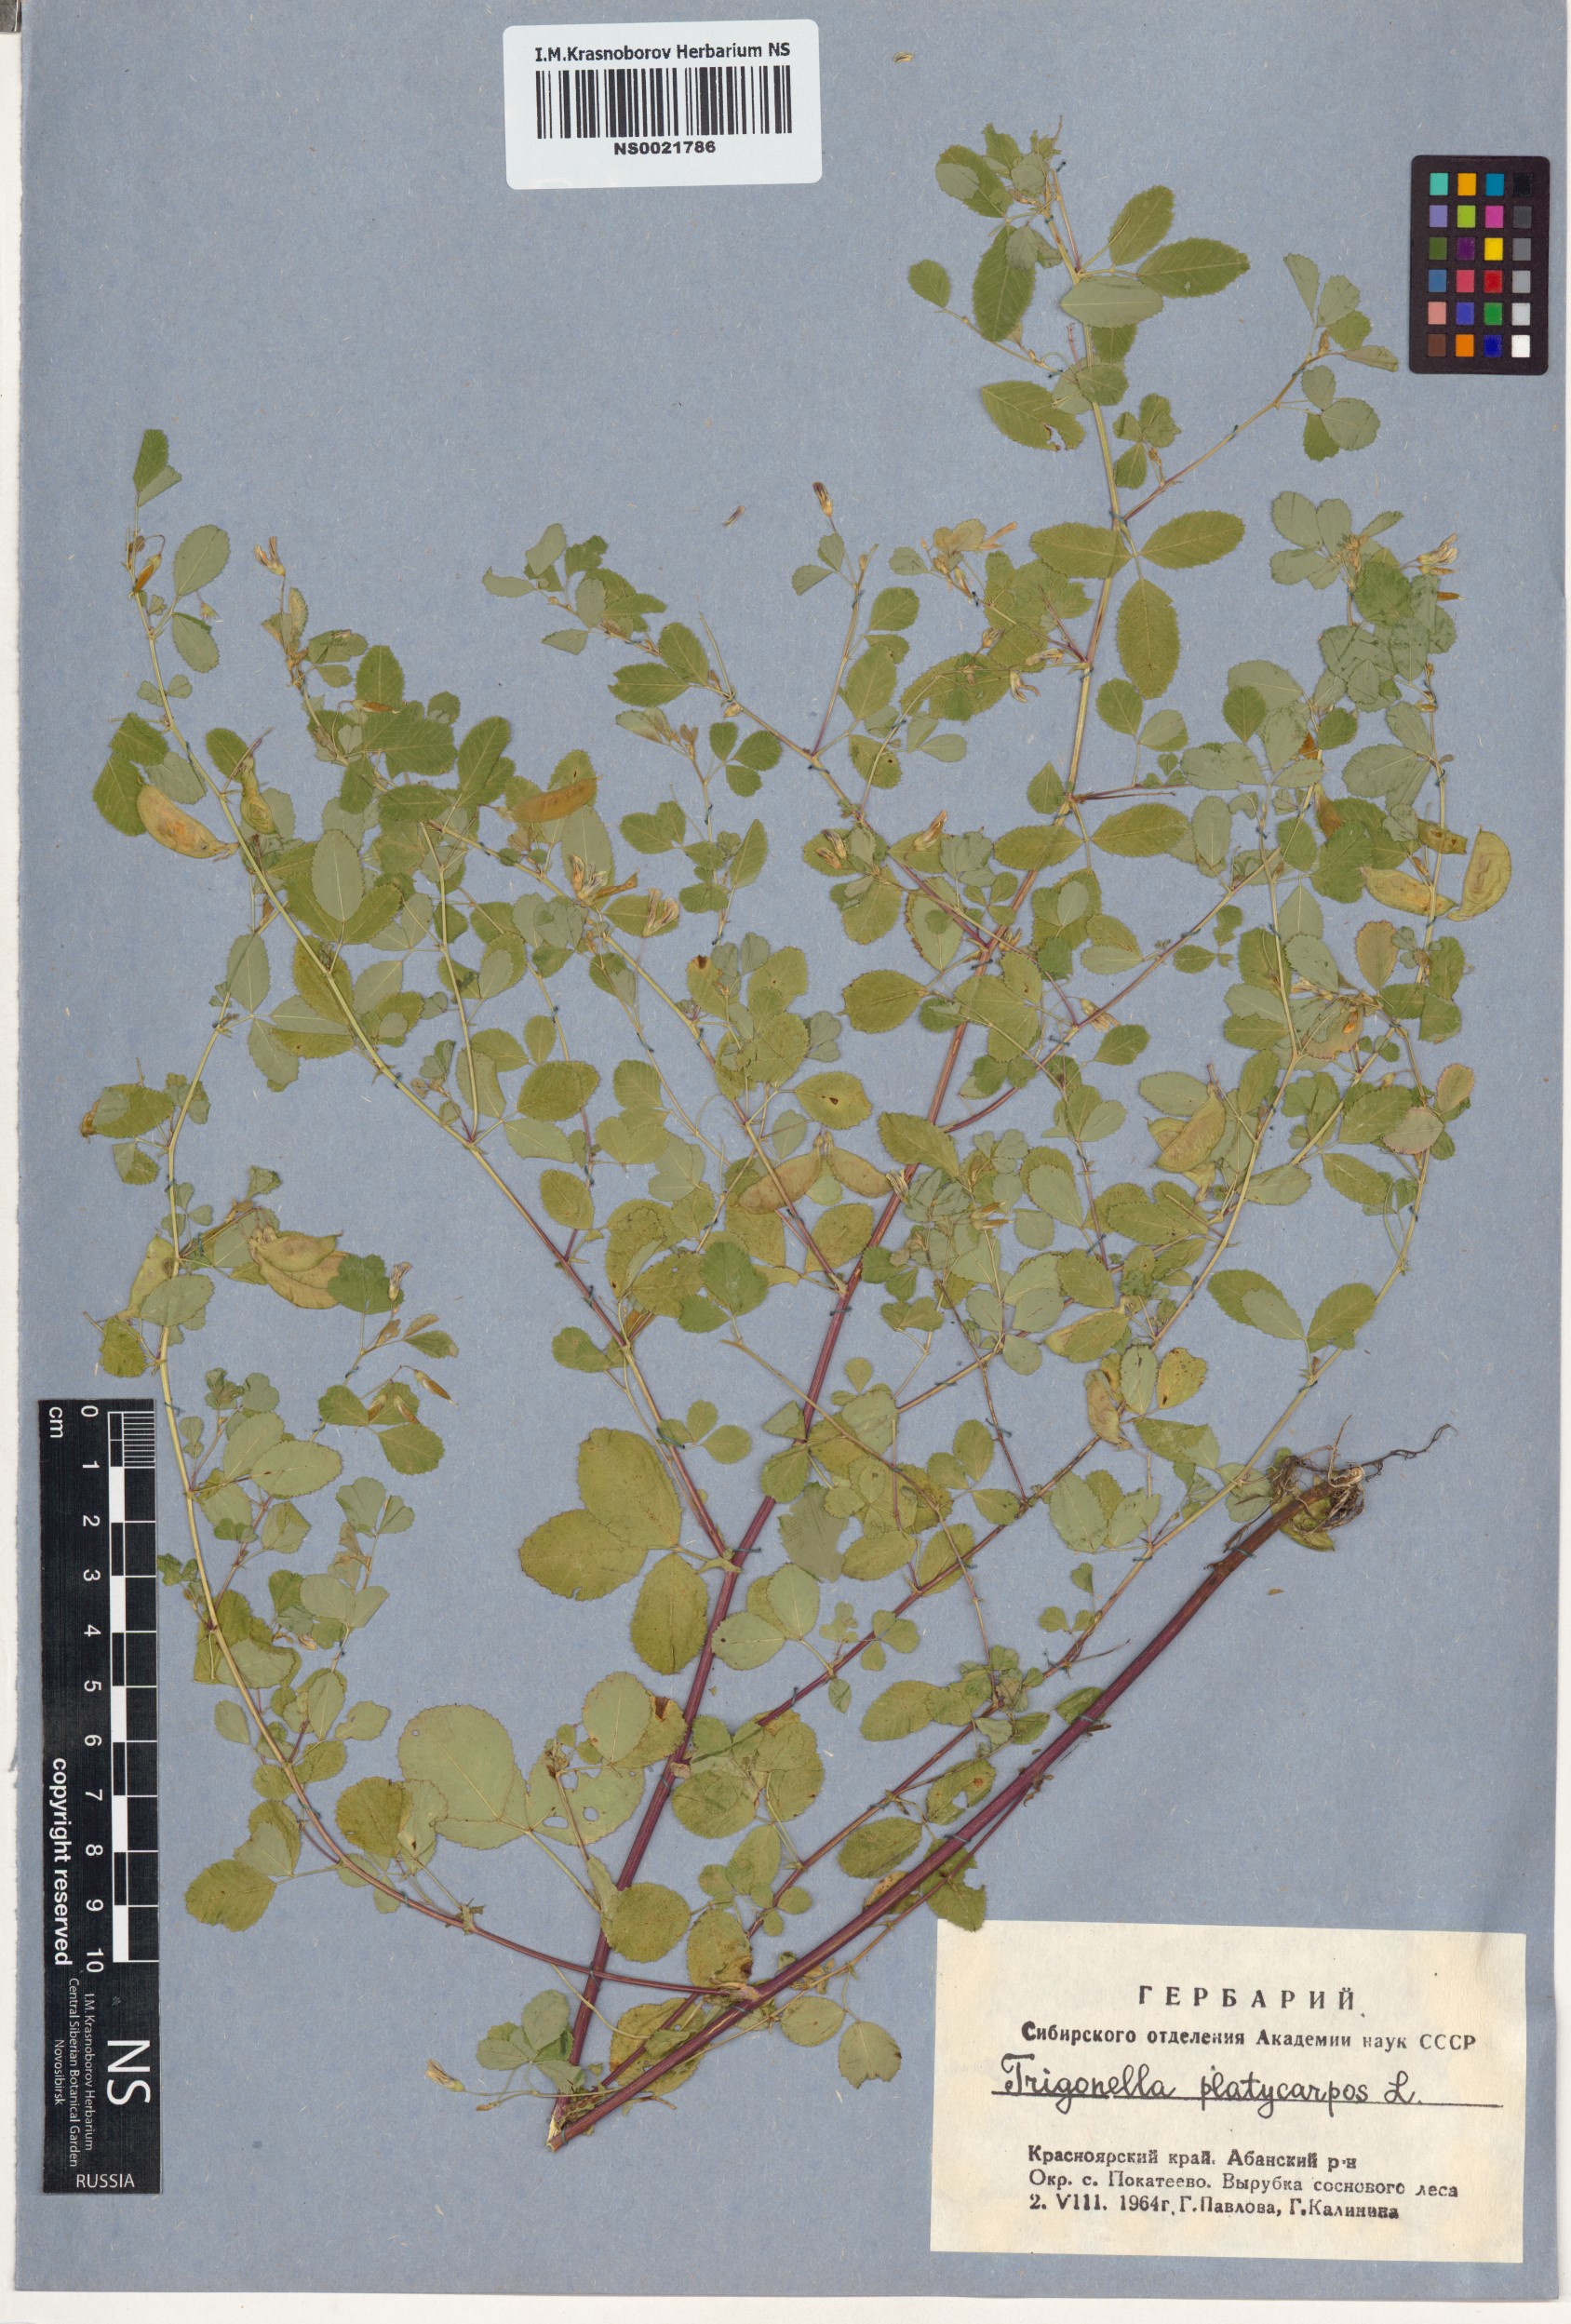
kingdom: Plantae
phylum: Tracheophyta
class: Magnoliopsida
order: Fabales
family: Fabaceae
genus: Medicago
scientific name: Medicago platycarpos
